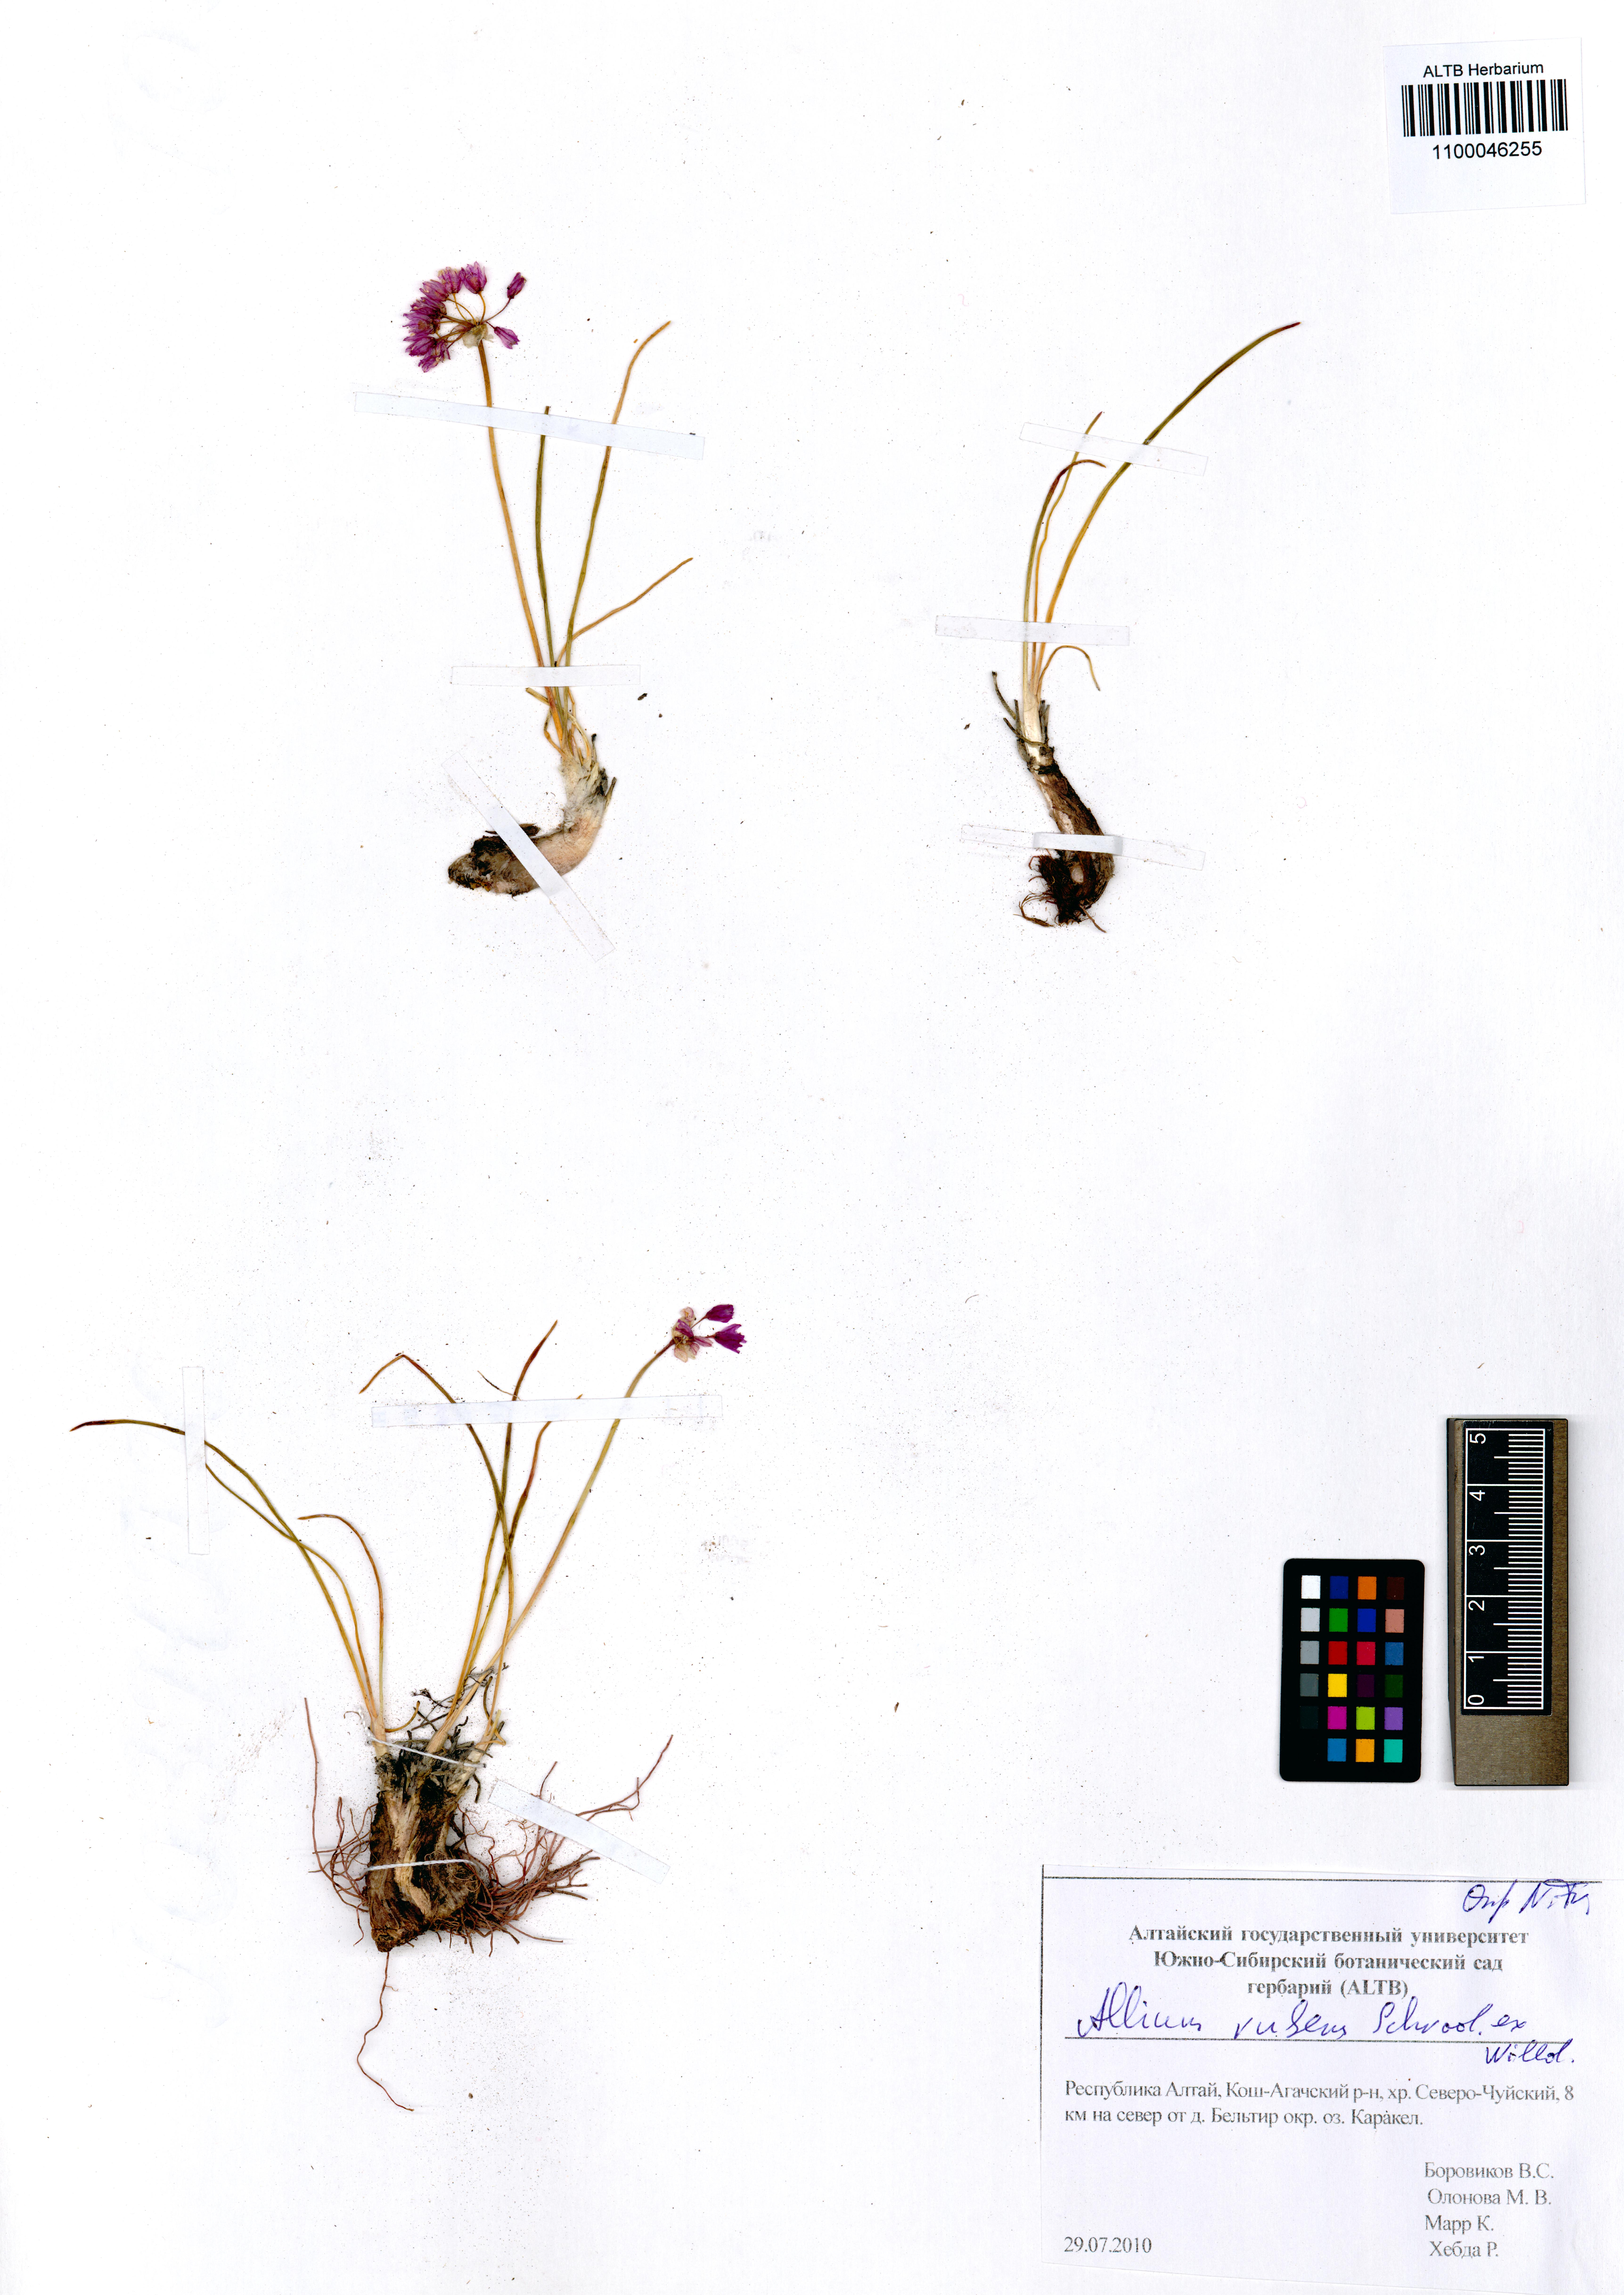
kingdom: Plantae
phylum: Tracheophyta
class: Liliopsida
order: Asparagales
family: Amaryllidaceae
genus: Allium
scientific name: Allium rubens
